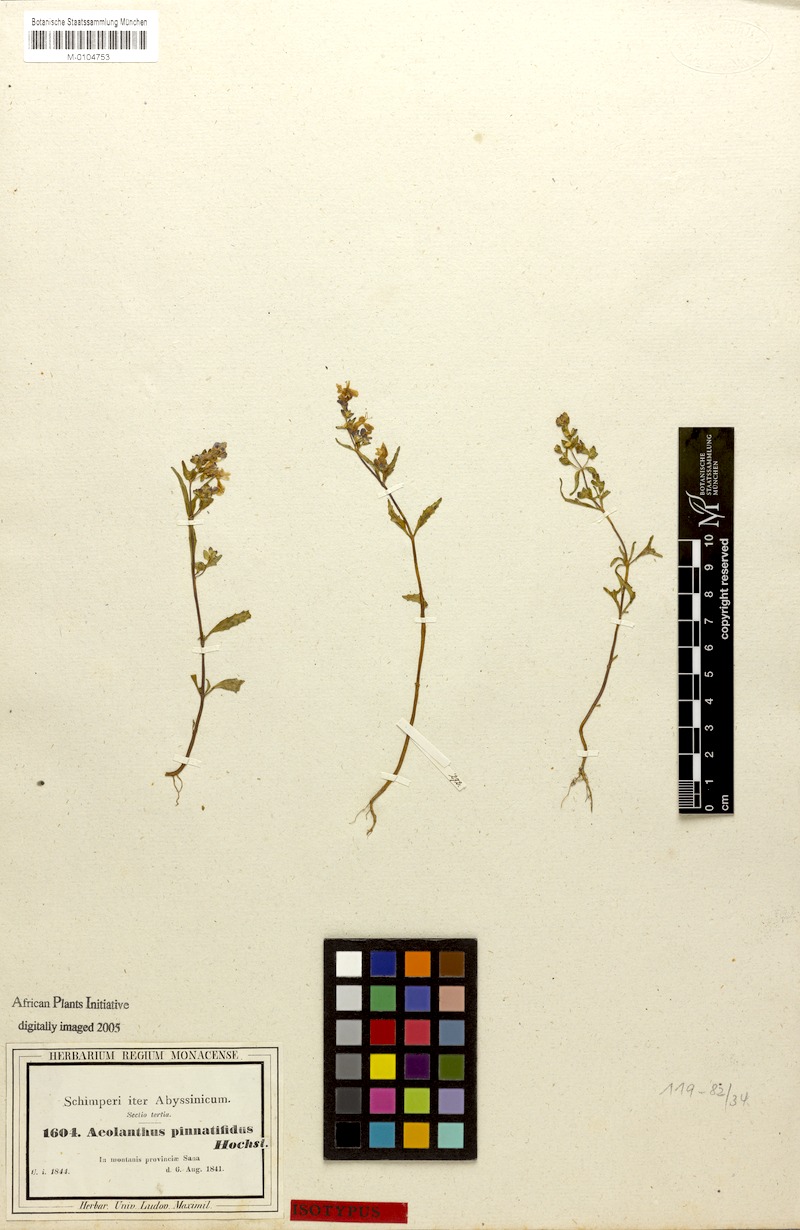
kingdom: Plantae
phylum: Tracheophyta
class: Magnoliopsida
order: Lamiales
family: Lamiaceae
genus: Aeollanthus
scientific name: Aeollanthus pinnatifidus
